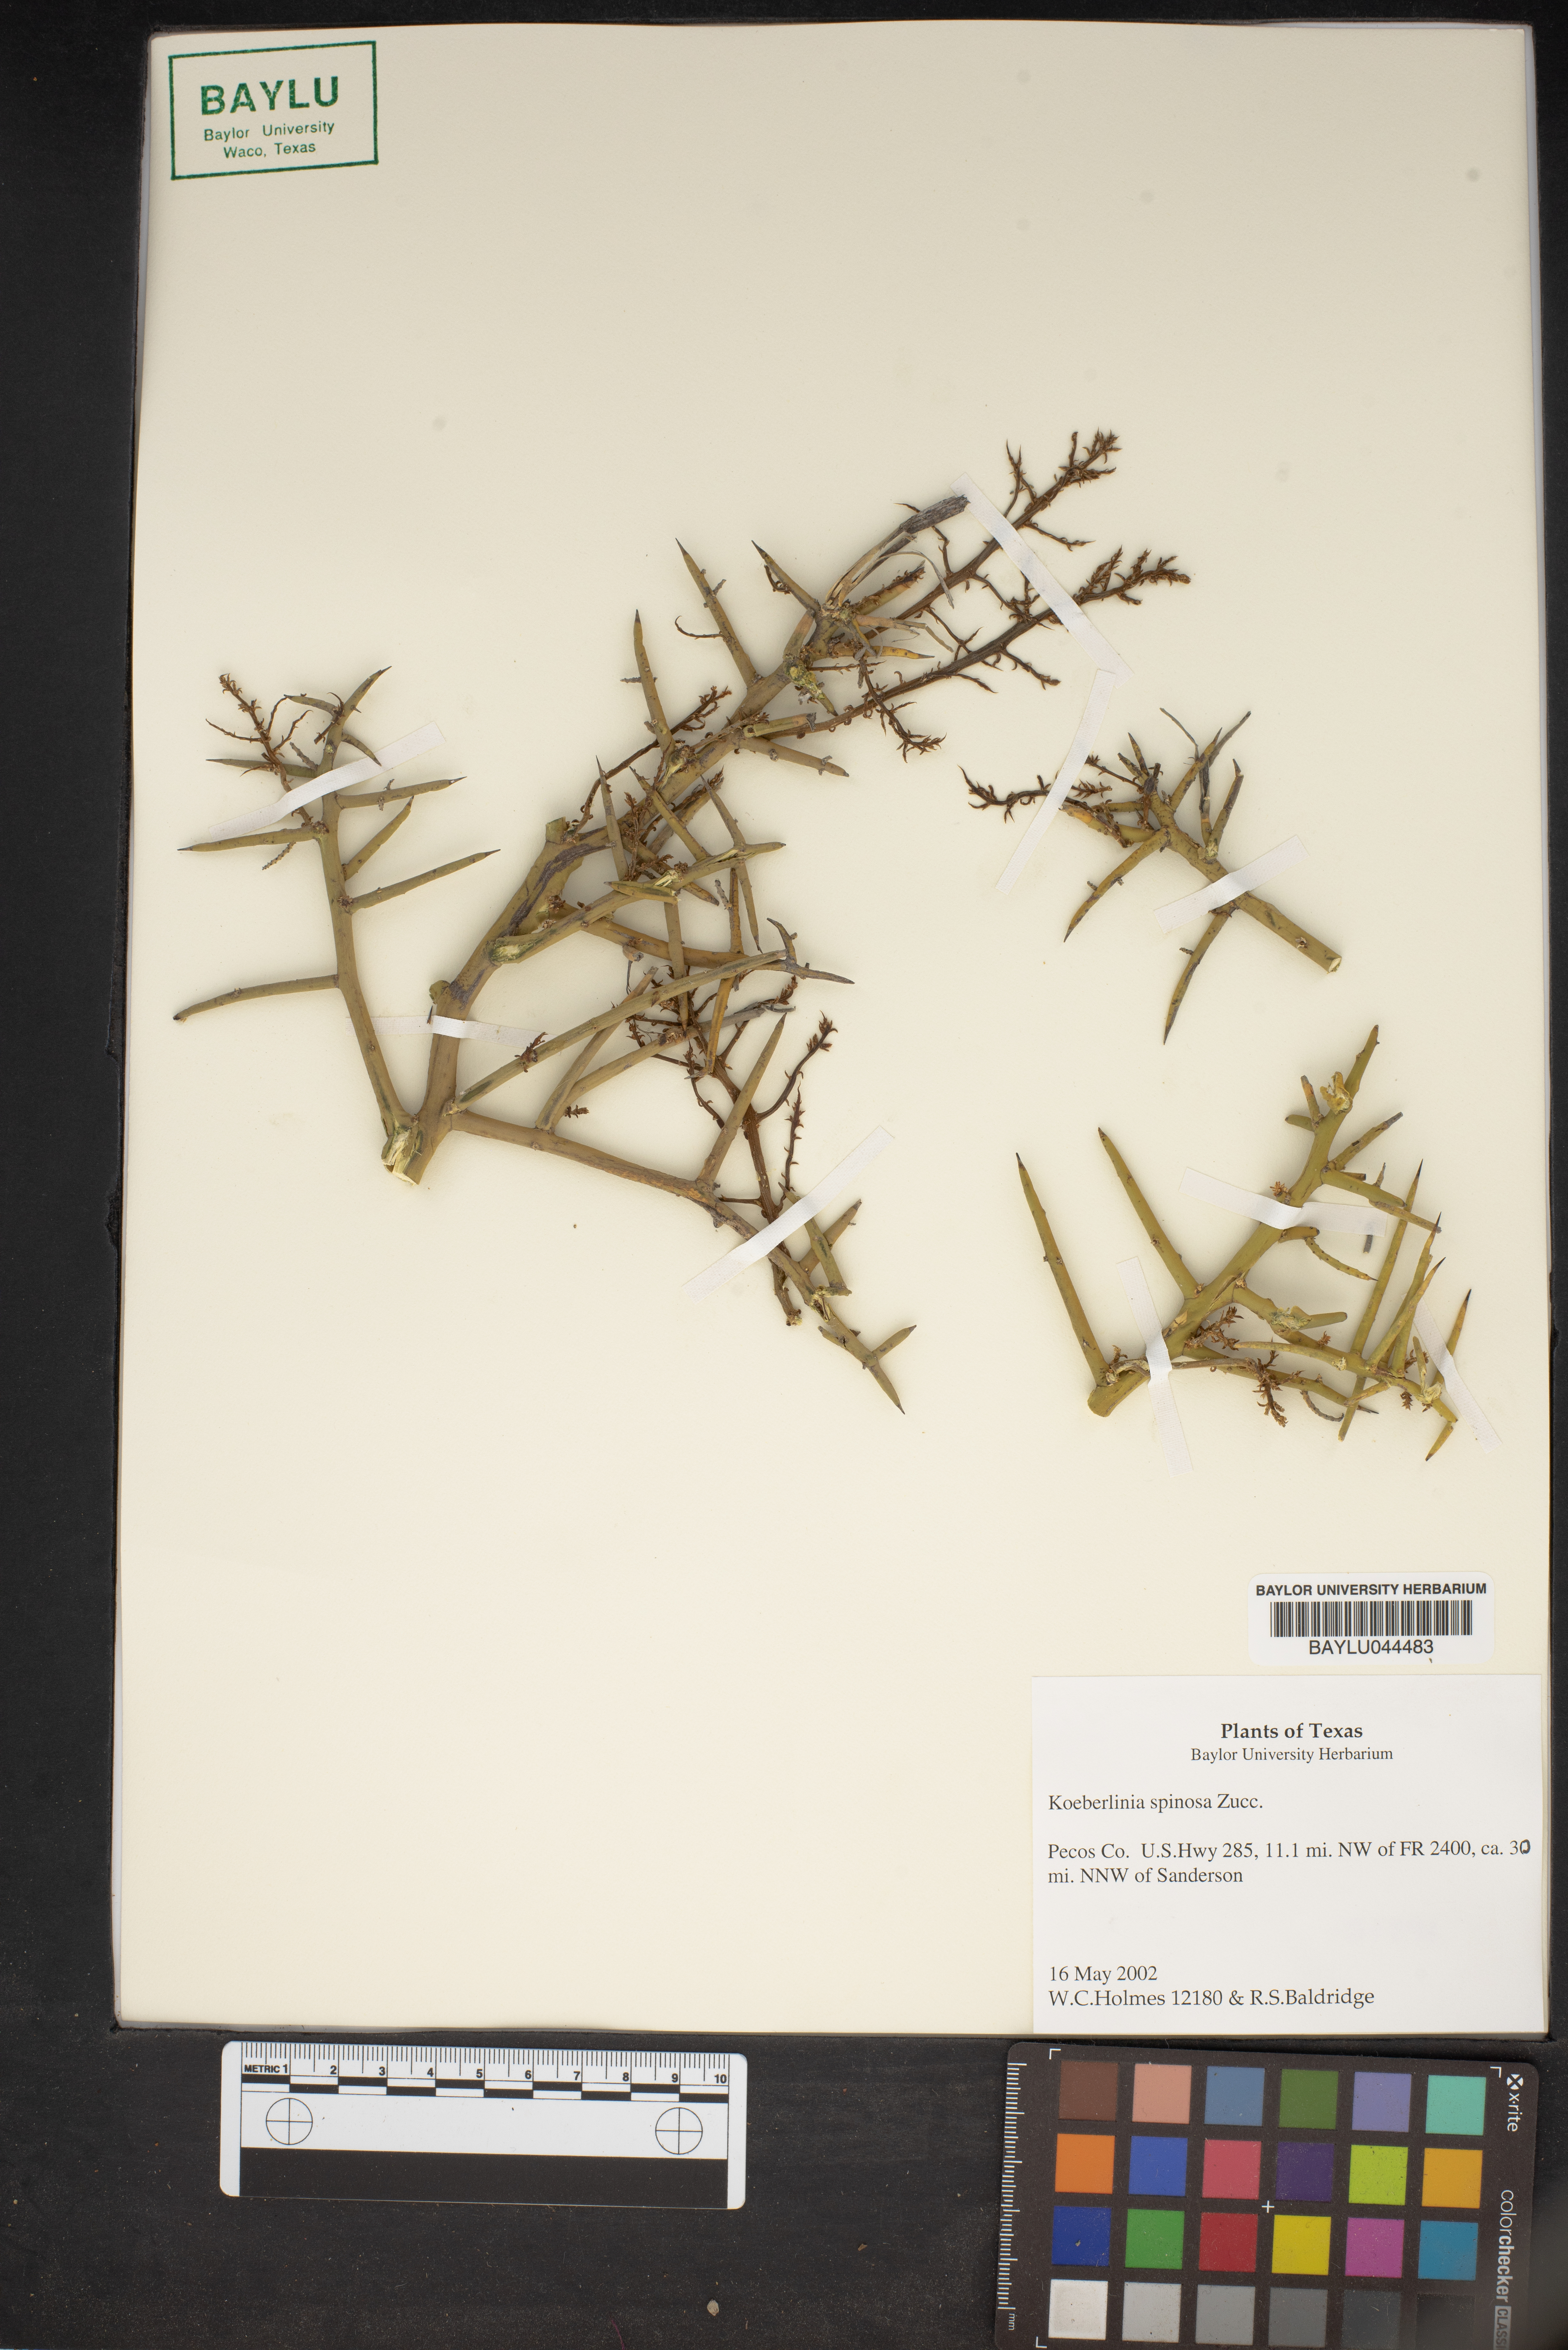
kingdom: Plantae
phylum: Tracheophyta
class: Magnoliopsida
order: Brassicales
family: Koeberliniaceae
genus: Koeberlinia
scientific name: Koeberlinia spinosa
